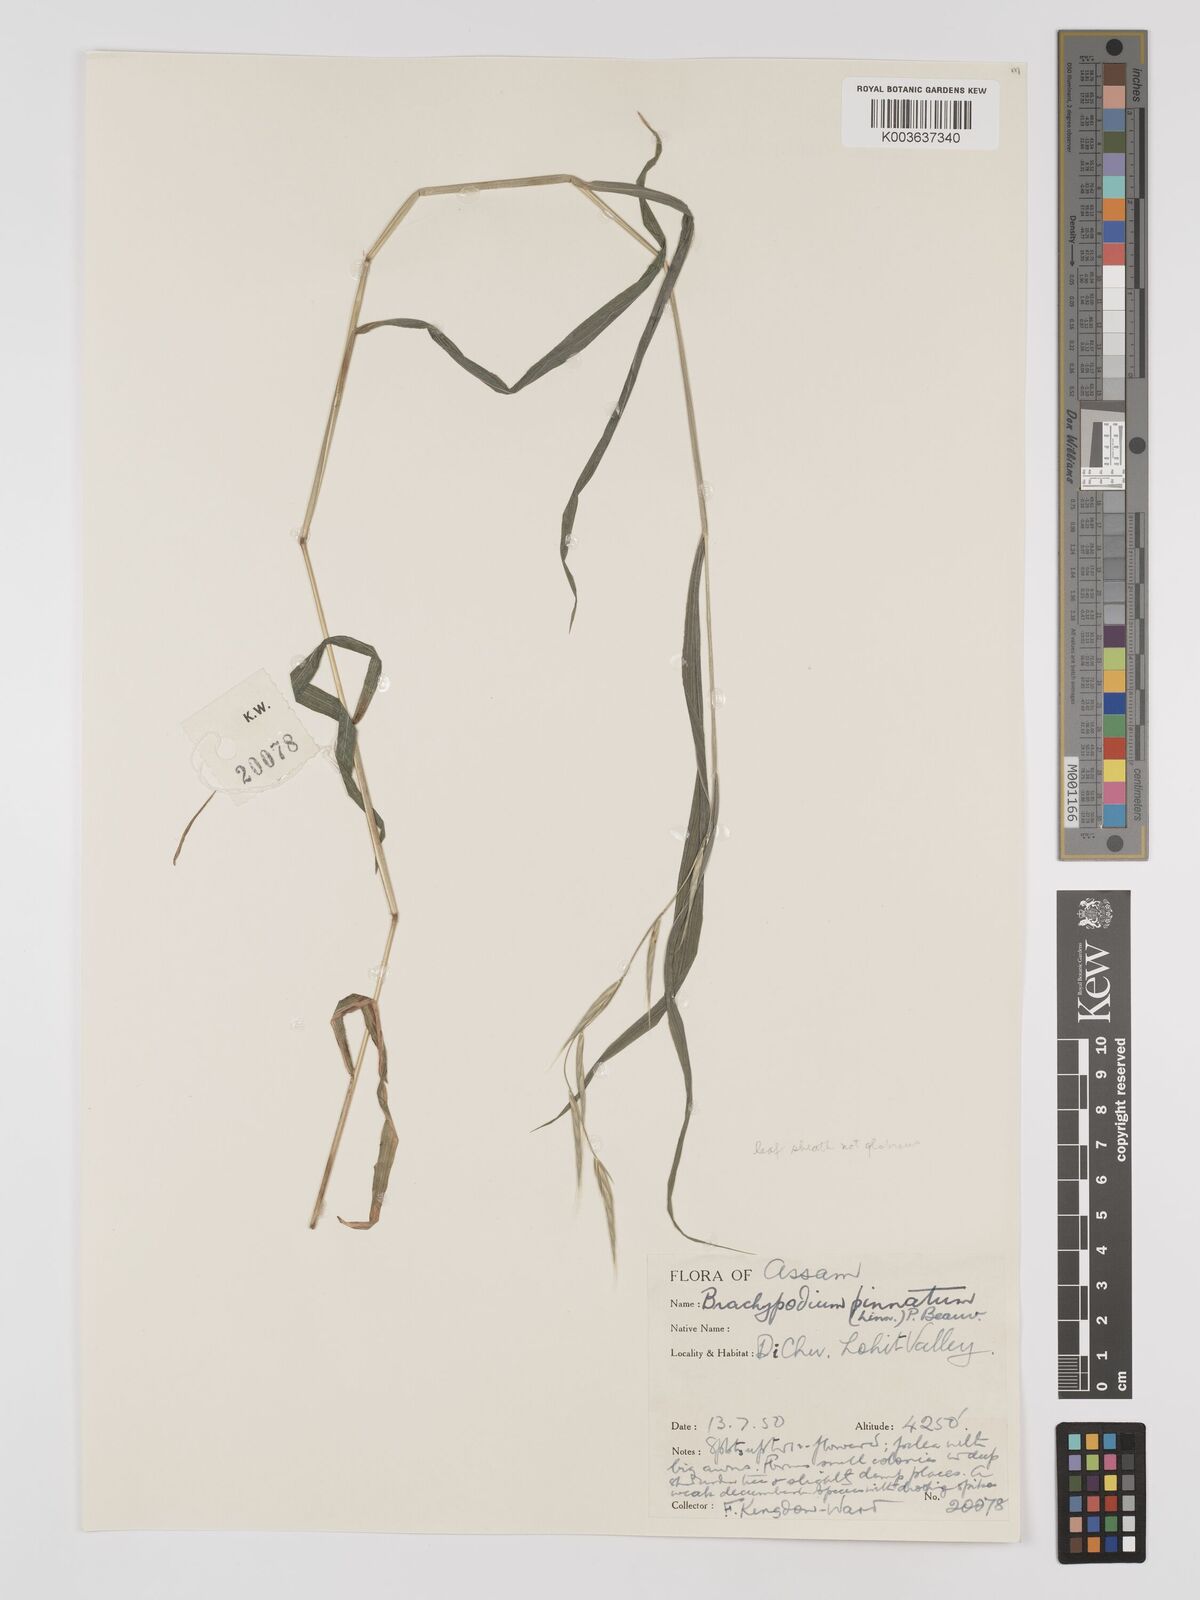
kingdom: Plantae
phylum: Tracheophyta
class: Liliopsida
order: Poales
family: Poaceae
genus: Brachypodium
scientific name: Brachypodium pinnatum
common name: Tor grass
